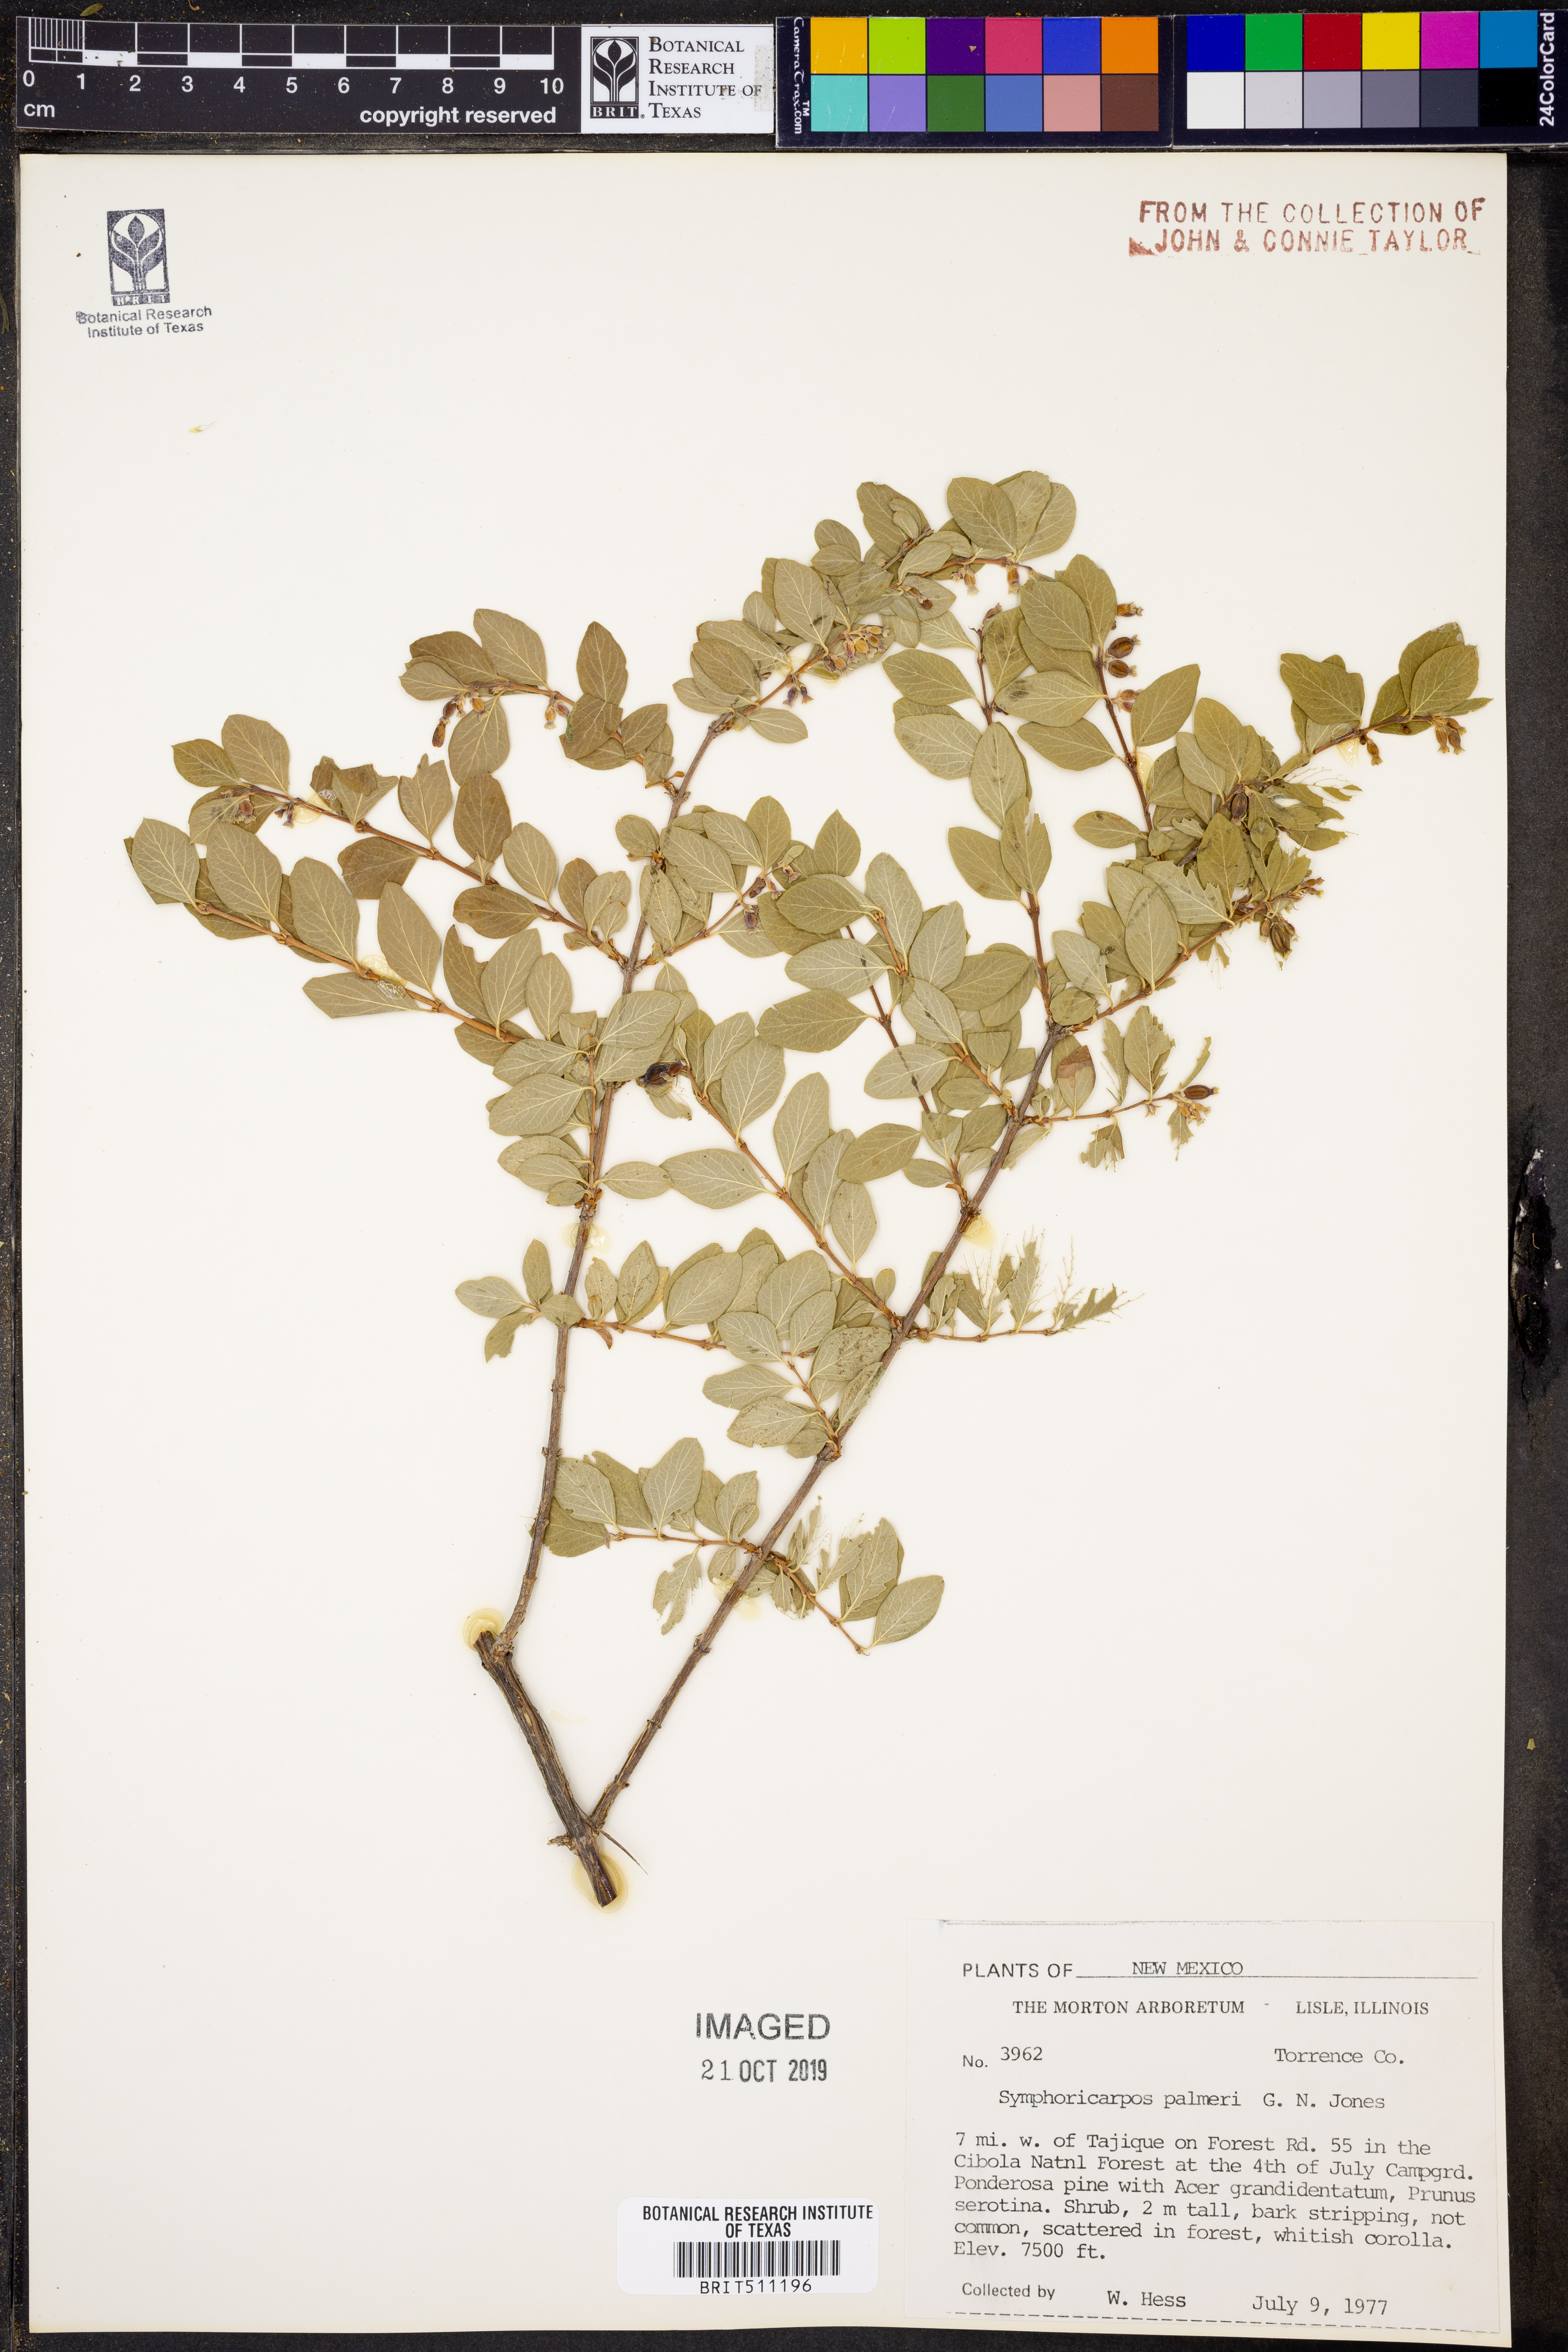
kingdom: Plantae
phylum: Tracheophyta
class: Magnoliopsida
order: Dipsacales
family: Caprifoliaceae
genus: Symphoricarpos
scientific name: Symphoricarpos palmeri
